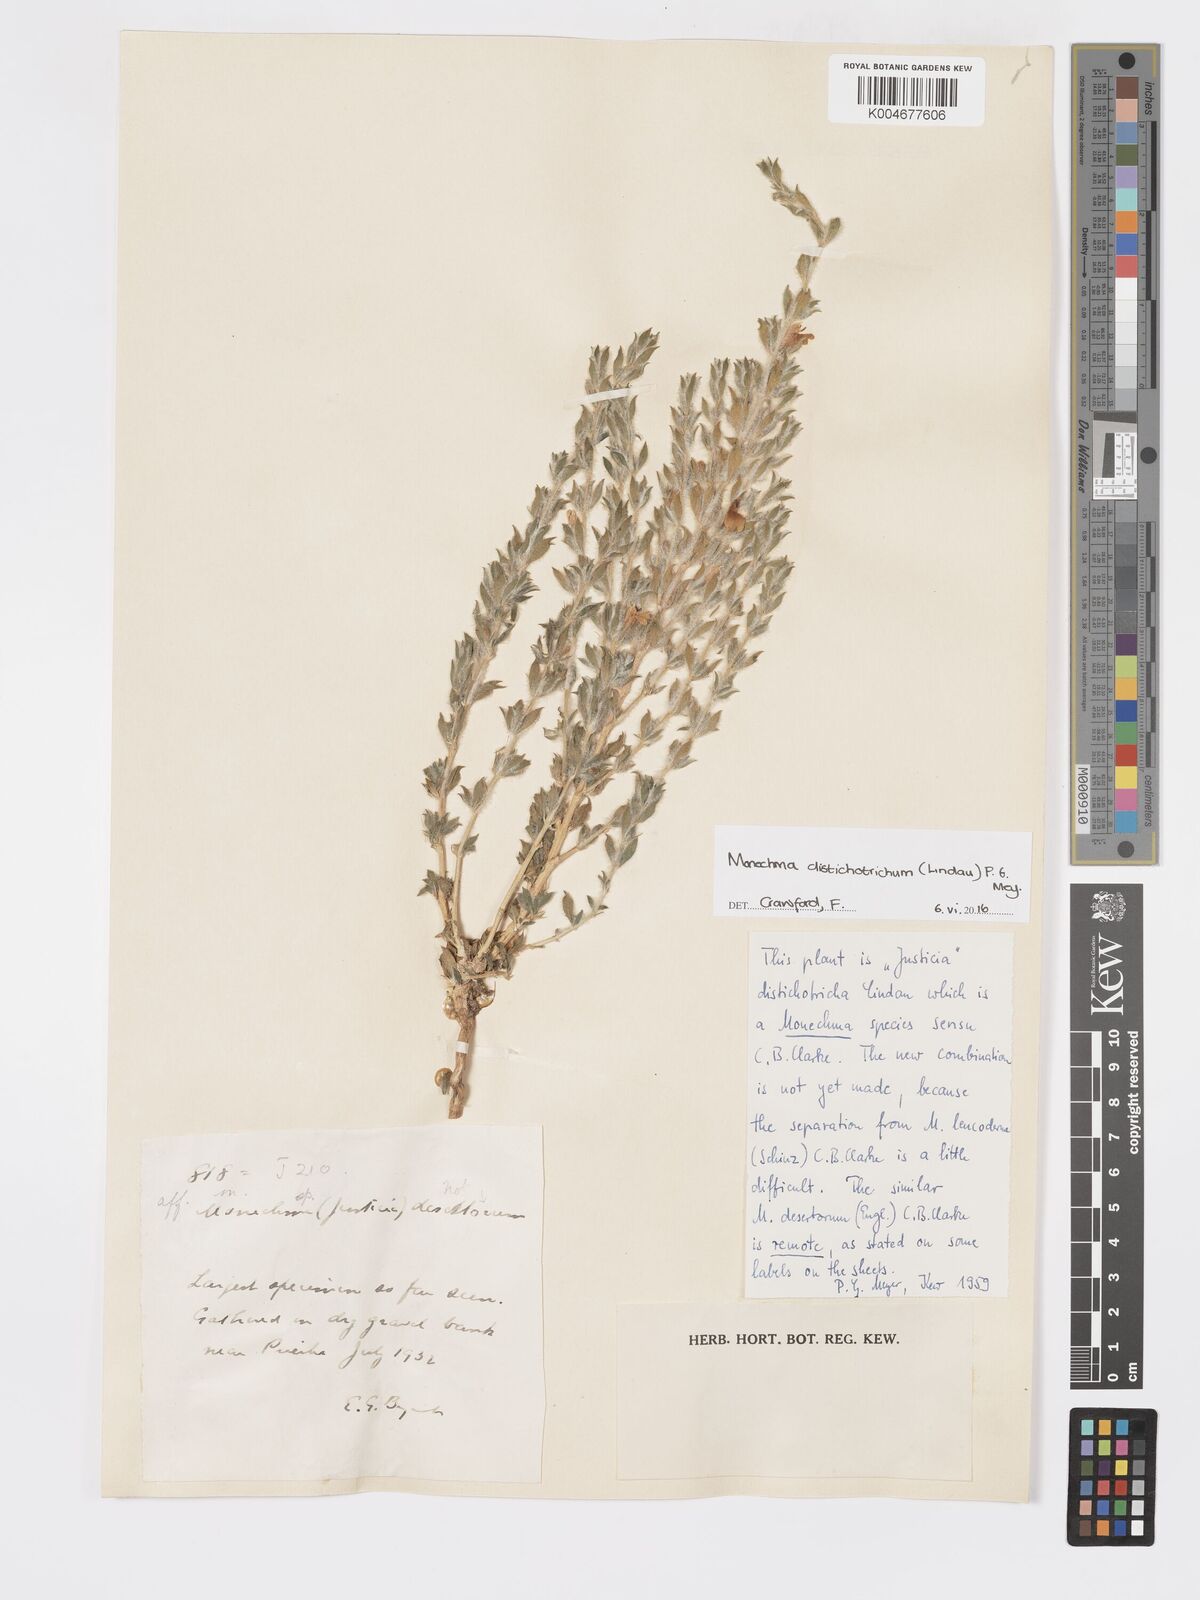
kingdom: Plantae
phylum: Tracheophyta
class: Magnoliopsida
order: Lamiales
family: Acanthaceae
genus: Pogonospermum
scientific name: Pogonospermum
